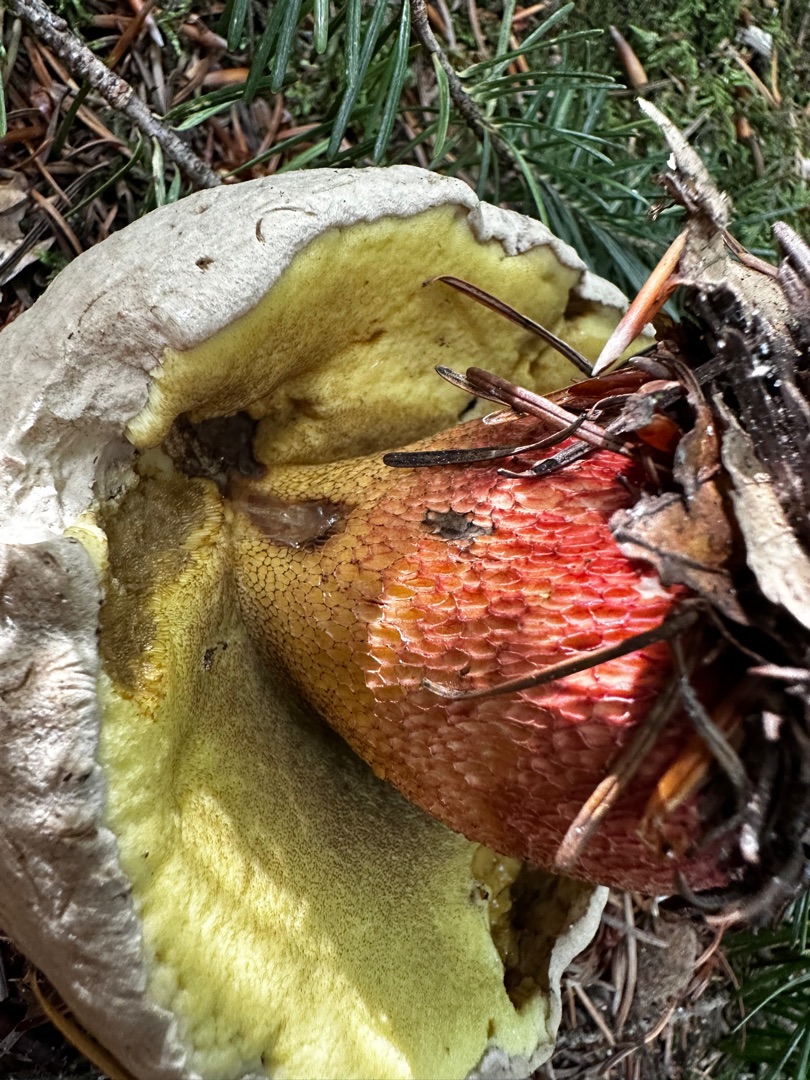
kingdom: Fungi
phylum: Basidiomycota
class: Agaricomycetes
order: Boletales
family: Boletaceae
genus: Caloboletus
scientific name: Caloboletus calopus
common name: Skønfodet rørhat
